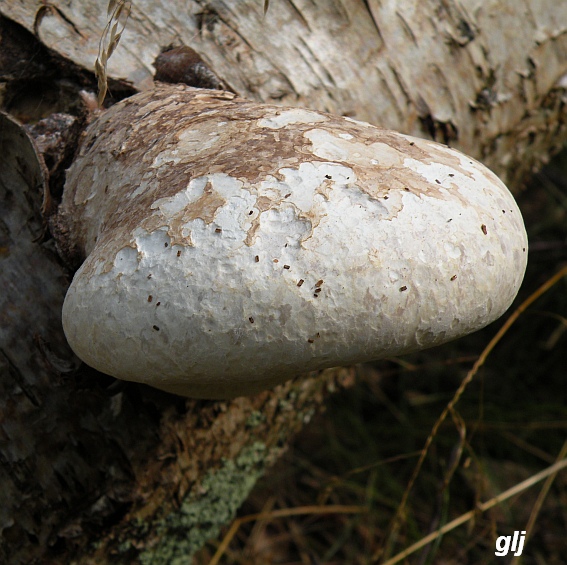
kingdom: Fungi
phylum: Basidiomycota
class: Agaricomycetes
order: Polyporales
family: Fomitopsidaceae
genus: Fomitopsis
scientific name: Fomitopsis betulina
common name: birkeporesvamp
